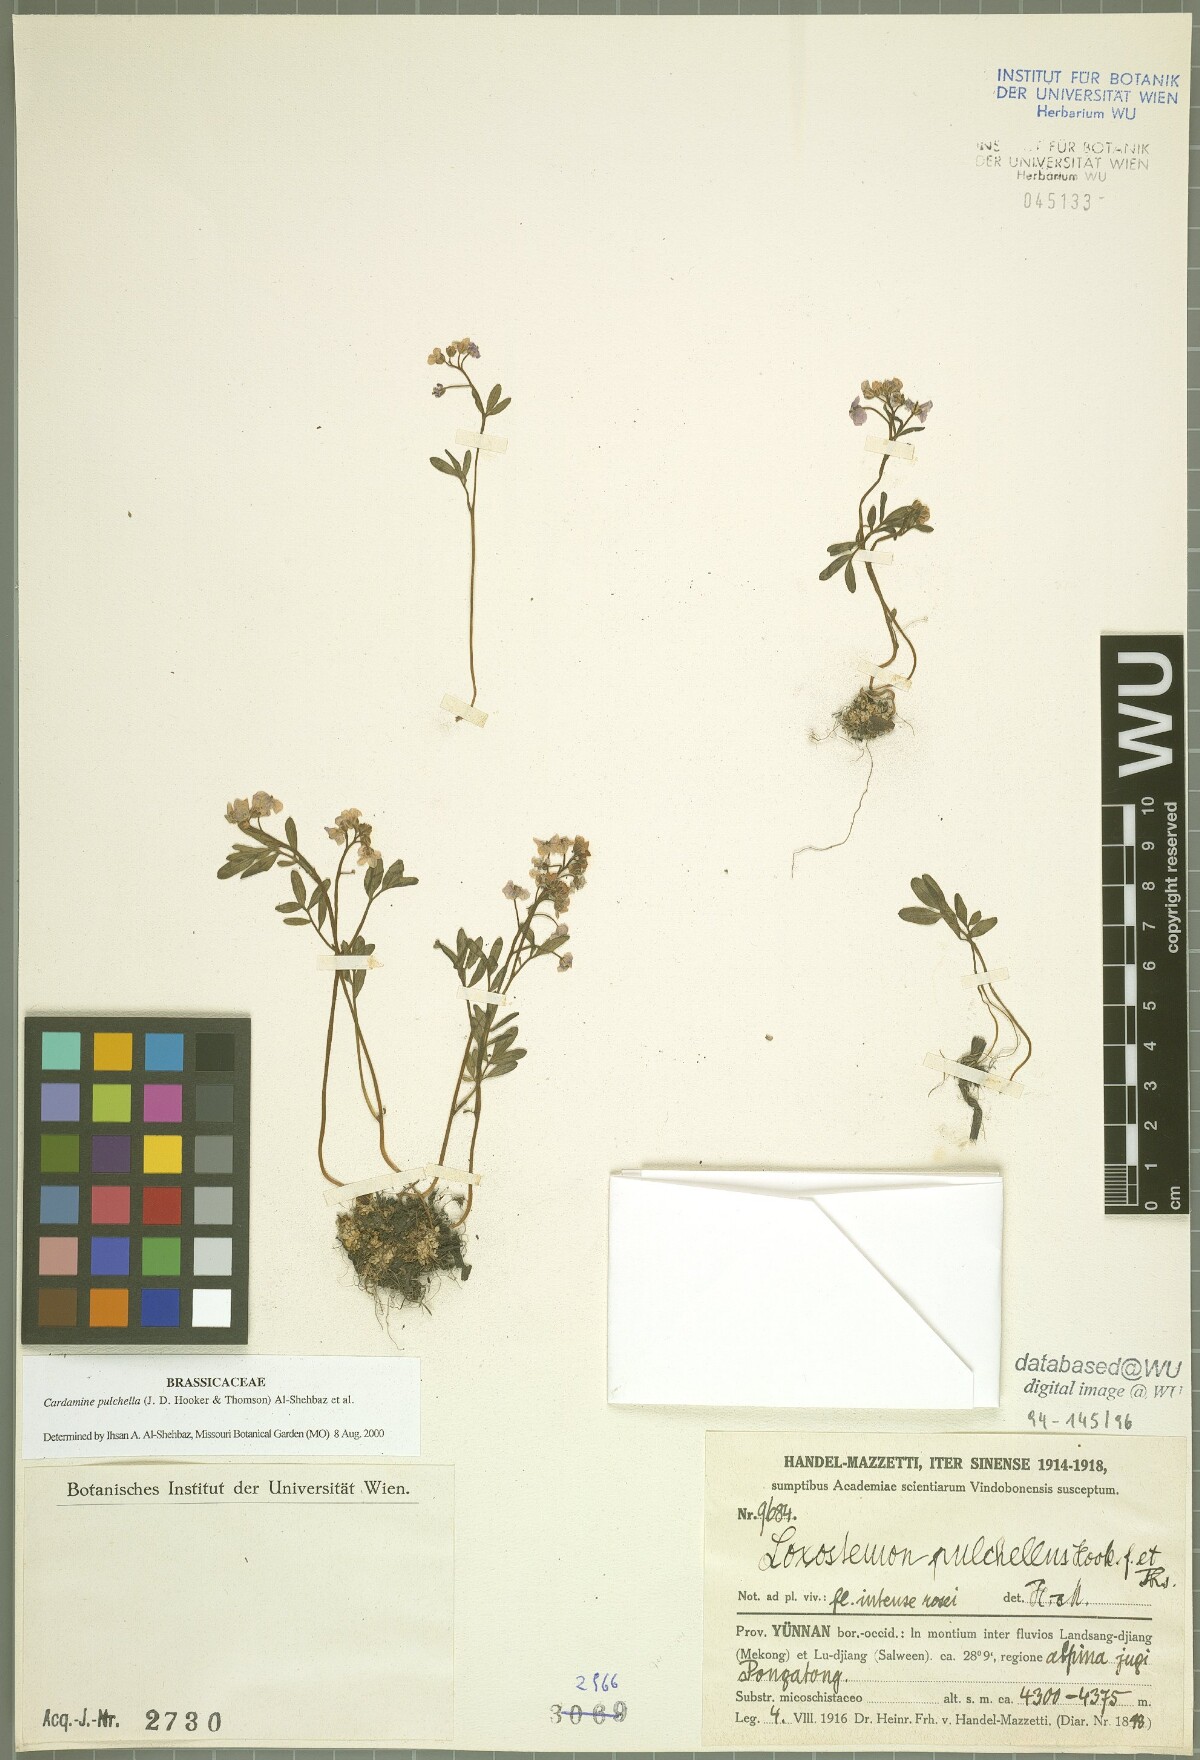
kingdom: Plantae
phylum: Tracheophyta
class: Magnoliopsida
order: Brassicales
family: Brassicaceae
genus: Cardamine
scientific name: Cardamine pulchella
